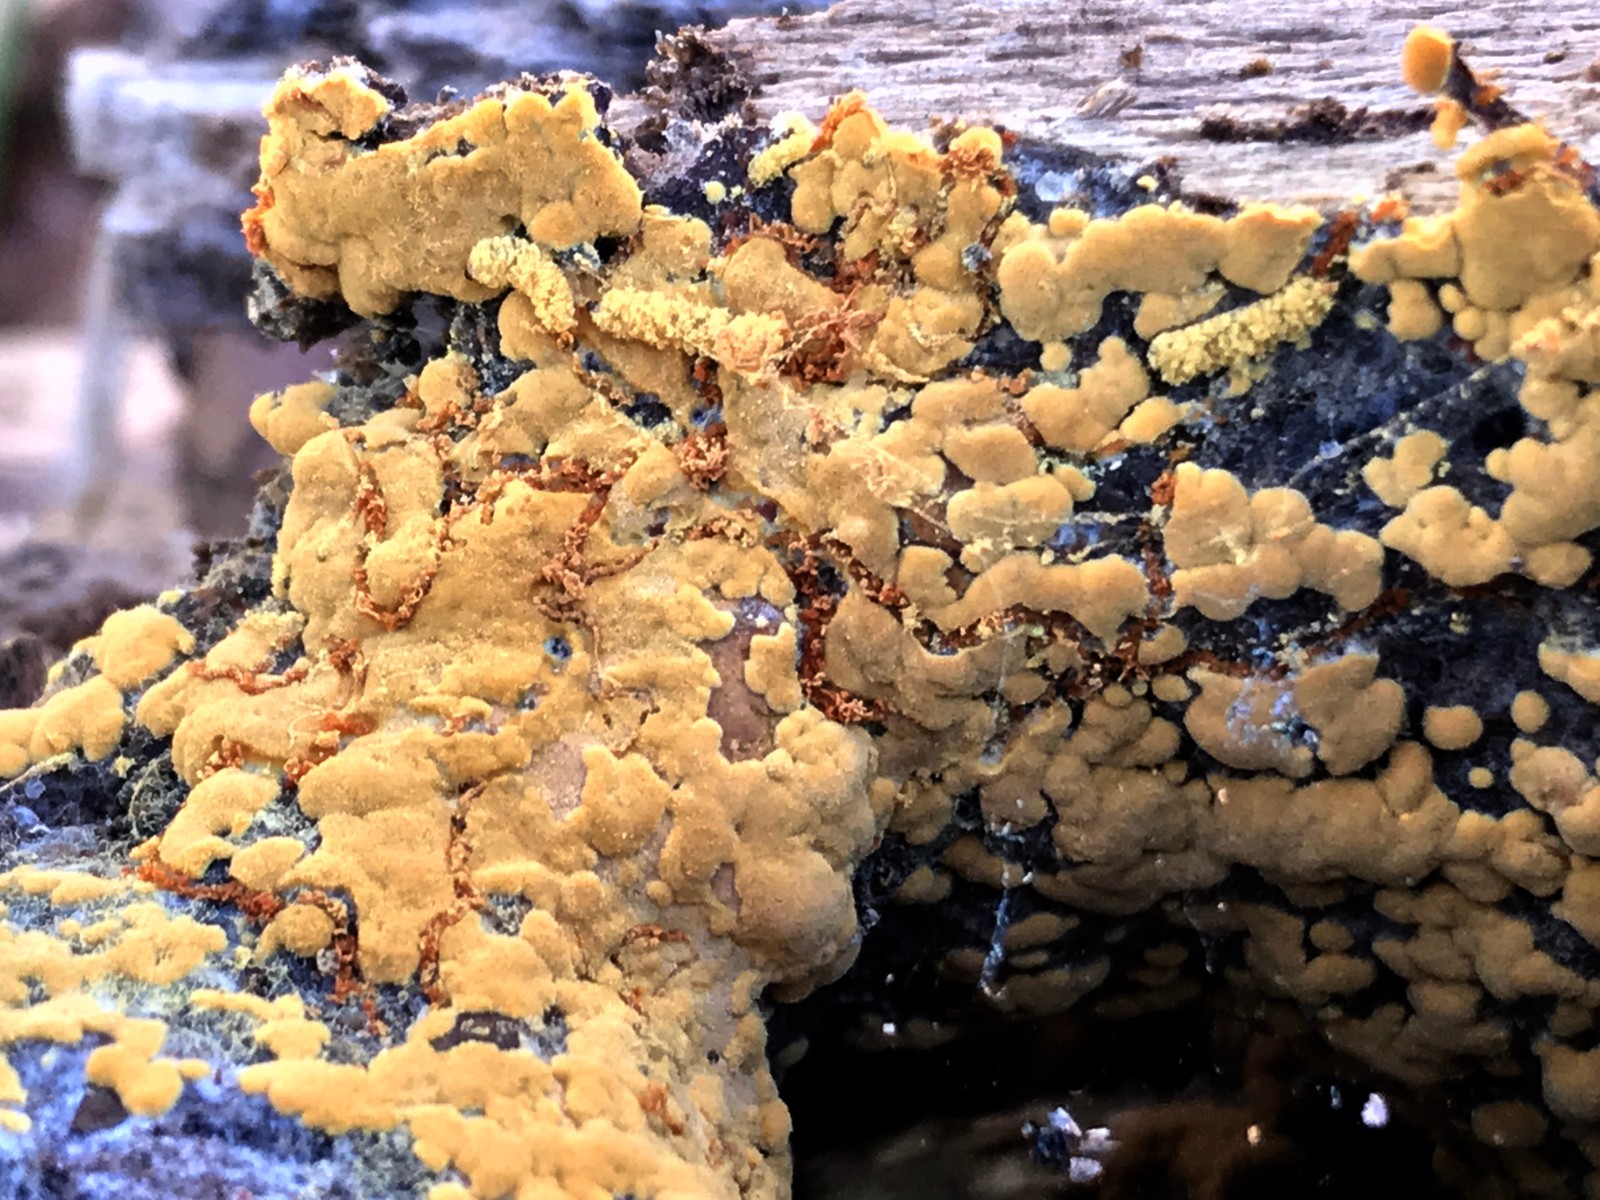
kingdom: Fungi
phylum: Basidiomycota
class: Agaricomycetes
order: Cantharellales
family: Botryobasidiaceae
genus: Botryobasidium
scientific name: Botryobasidium aureum
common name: gylden spindhinde
